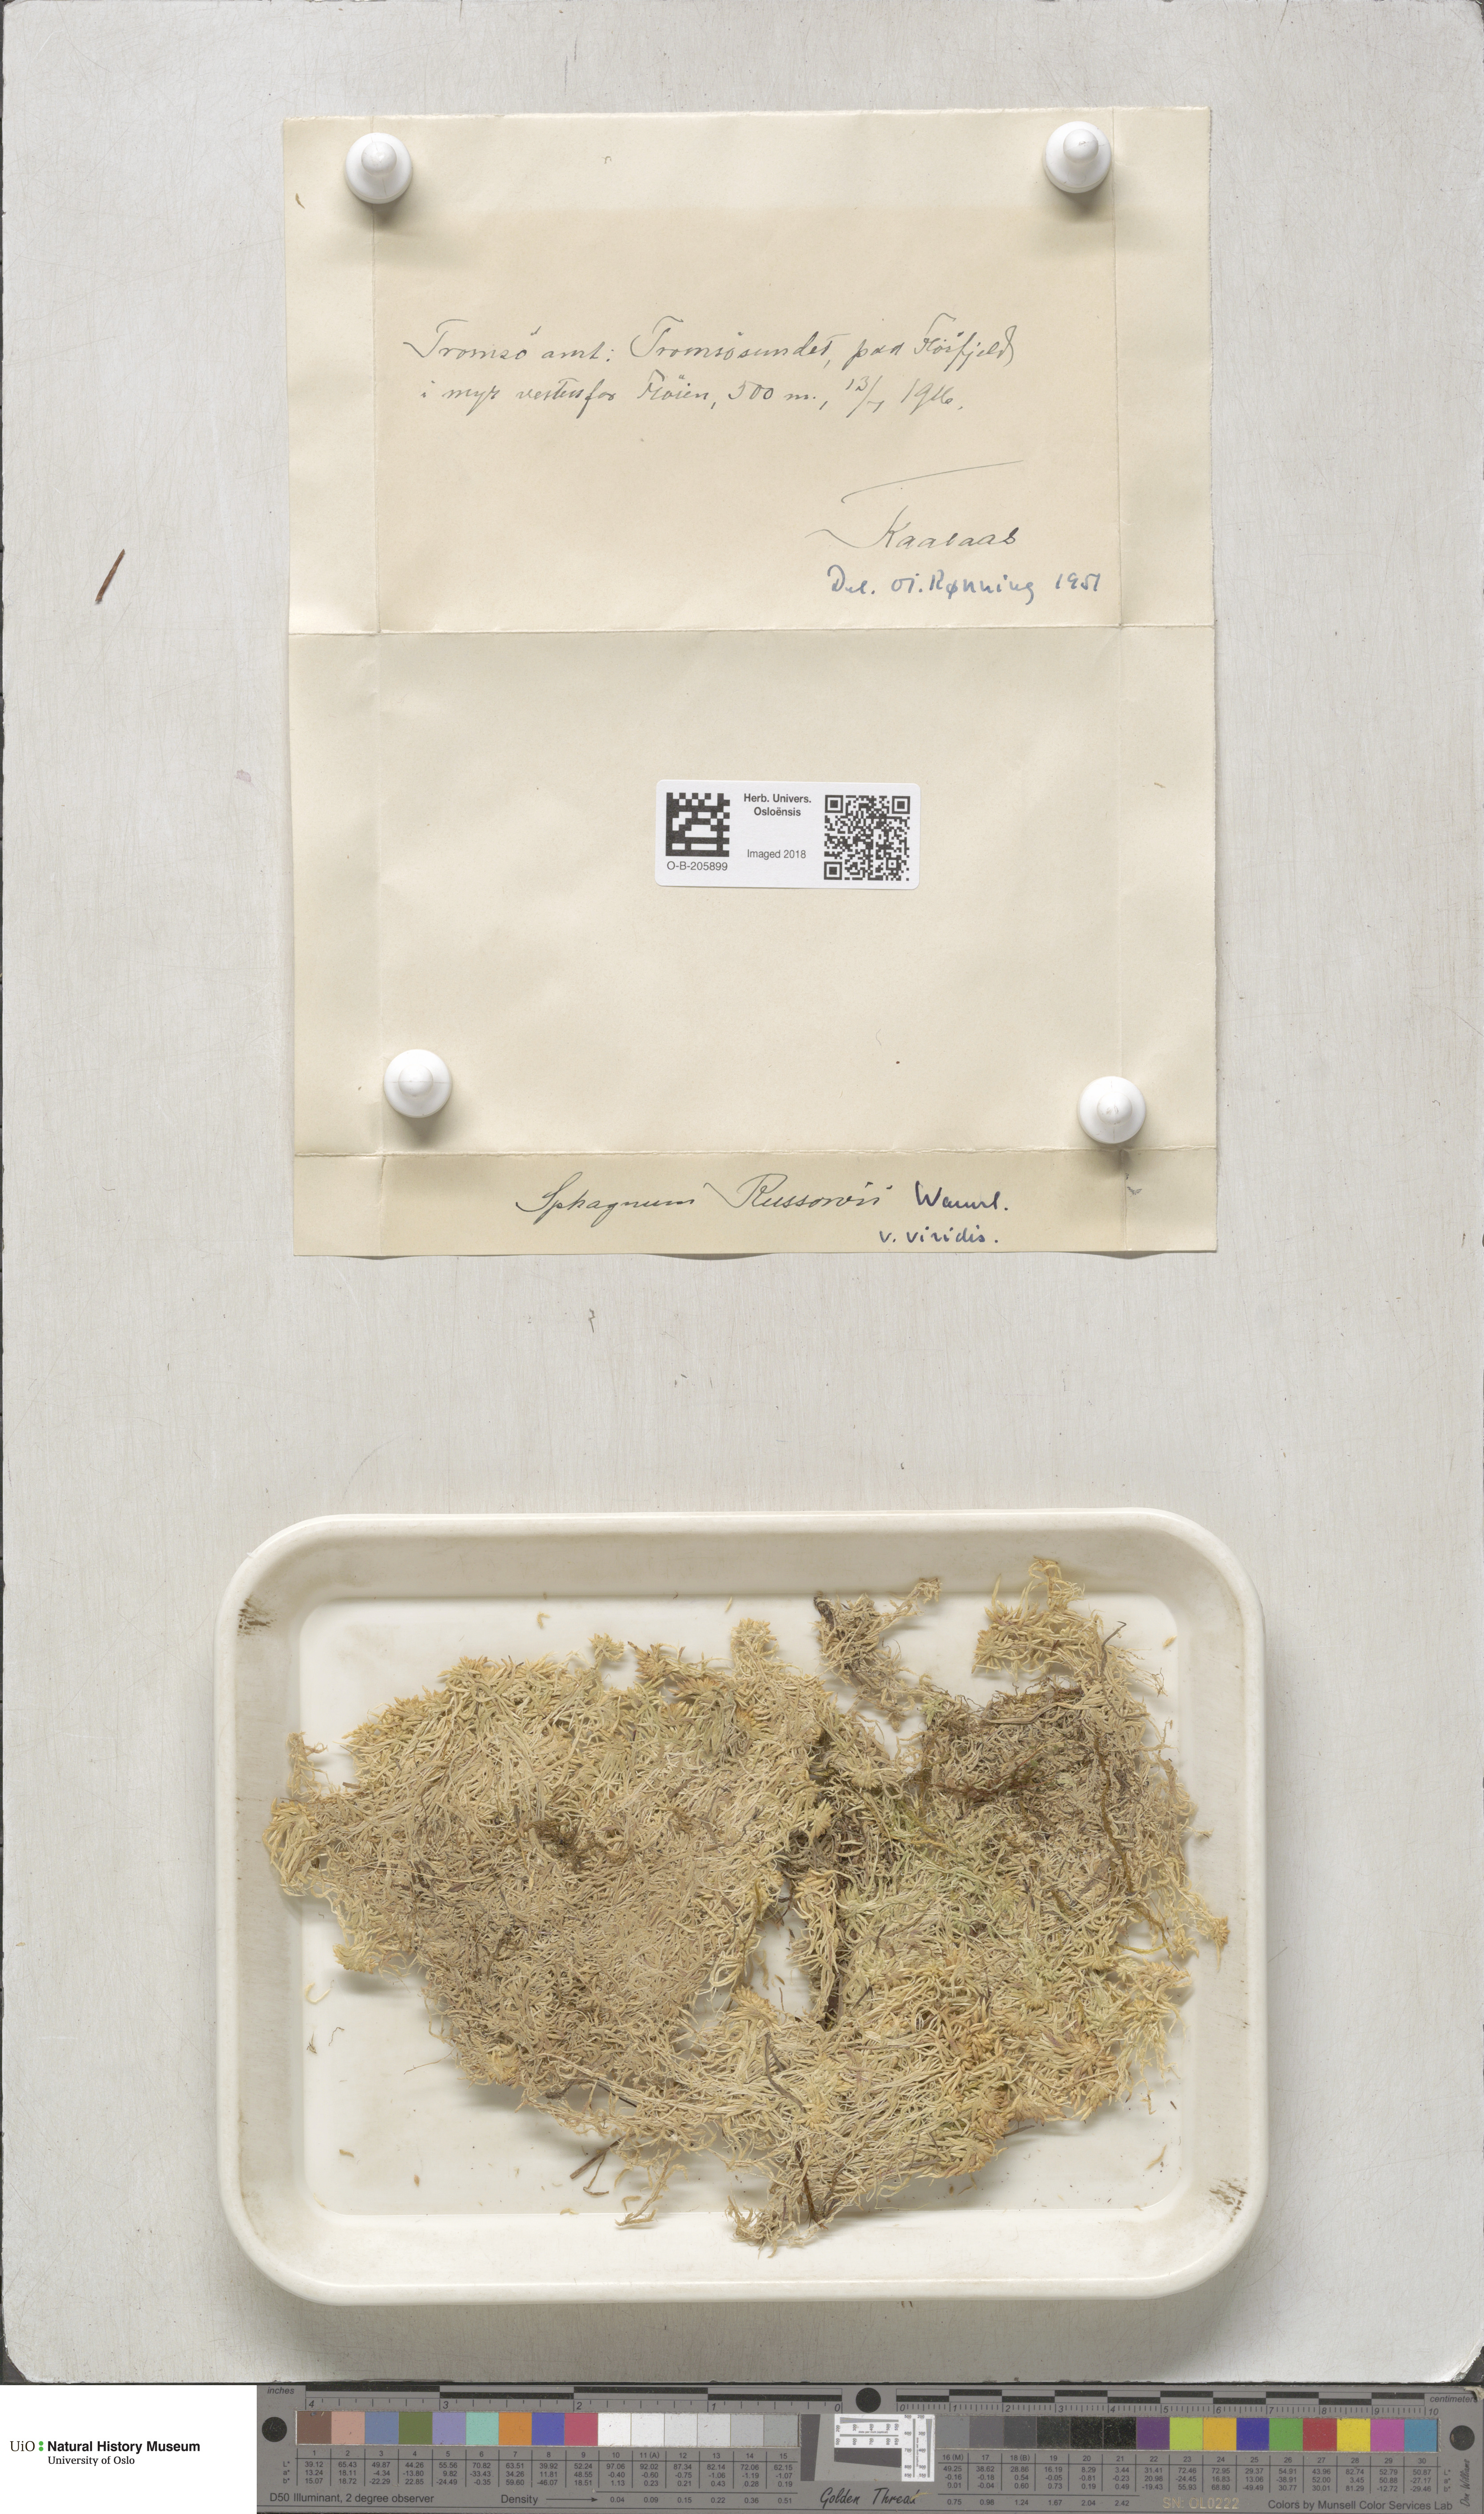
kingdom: Plantae
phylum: Bryophyta
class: Sphagnopsida
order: Sphagnales
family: Sphagnaceae
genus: Sphagnum
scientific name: Sphagnum russowii
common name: Russow's peat moss
